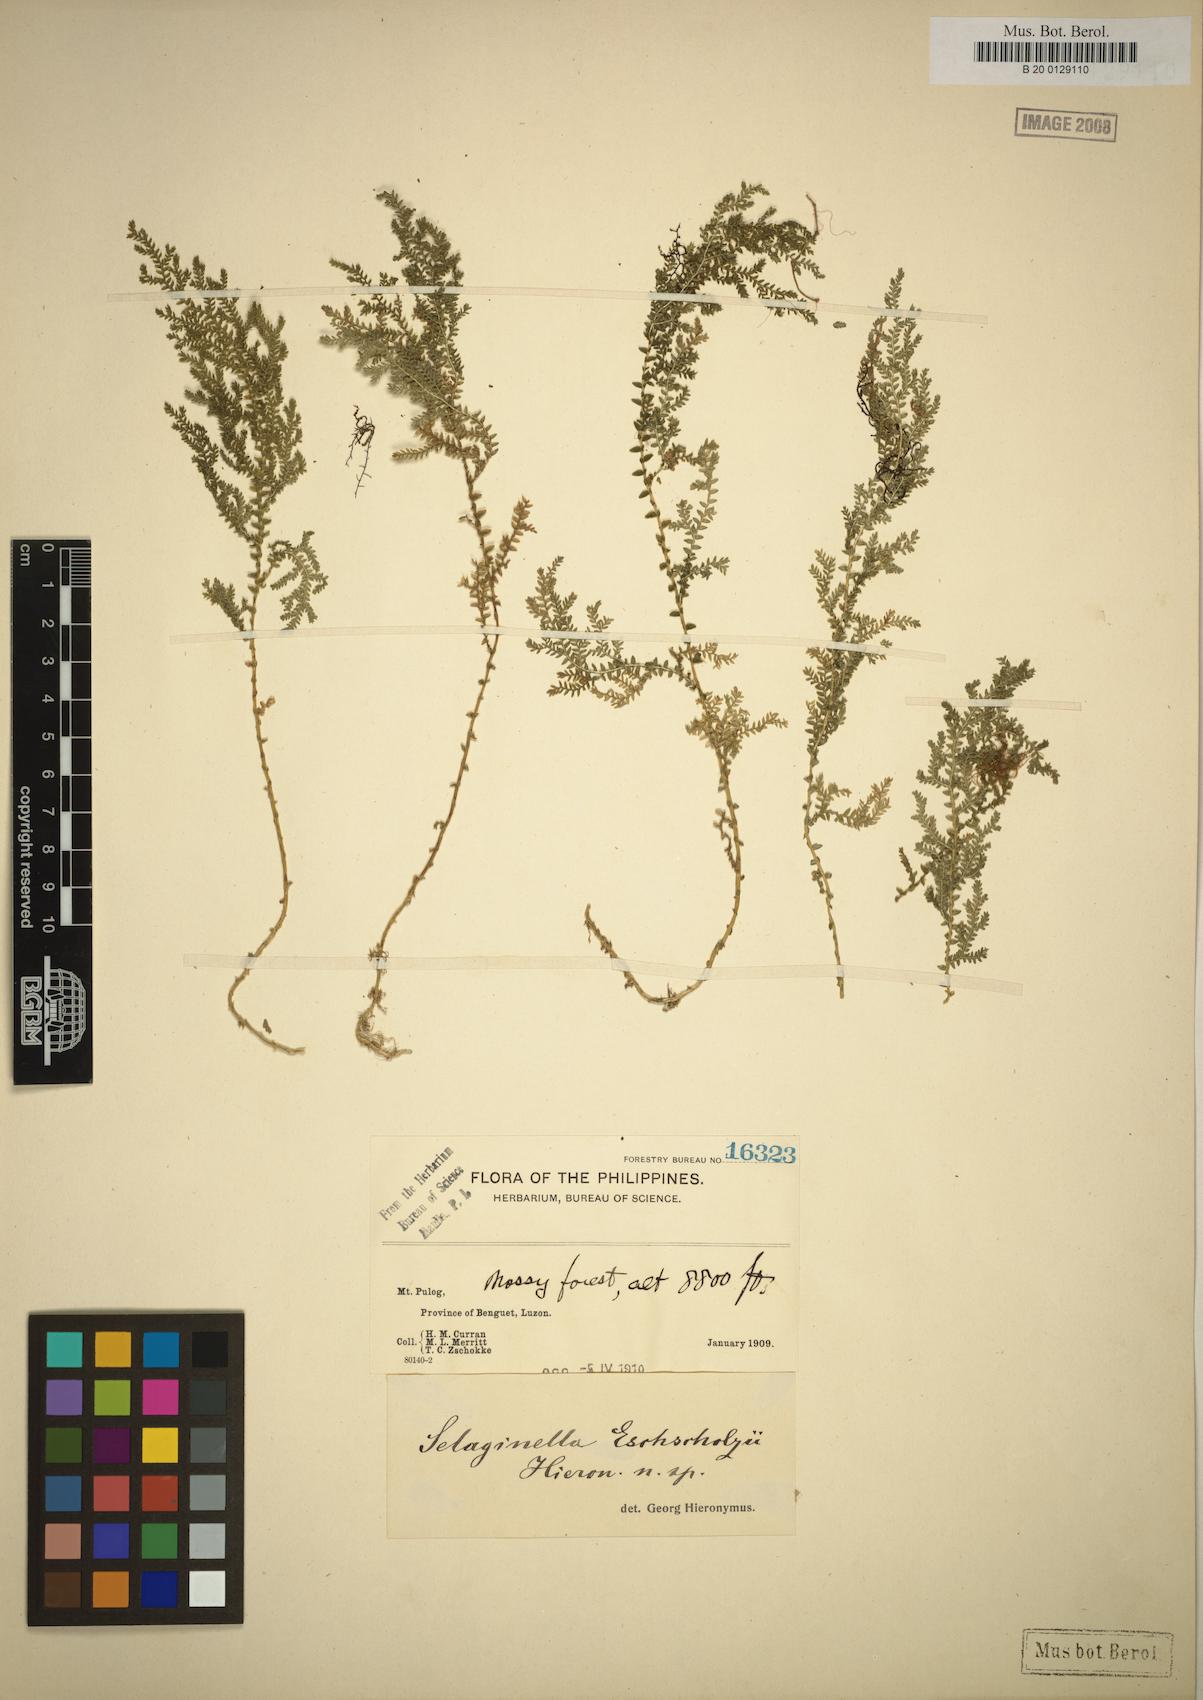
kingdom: Plantae
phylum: Tracheophyta
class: Lycopodiopsida
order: Selaginellales
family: Selaginellaceae
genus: Selaginella
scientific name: Selaginella eschscholzii
